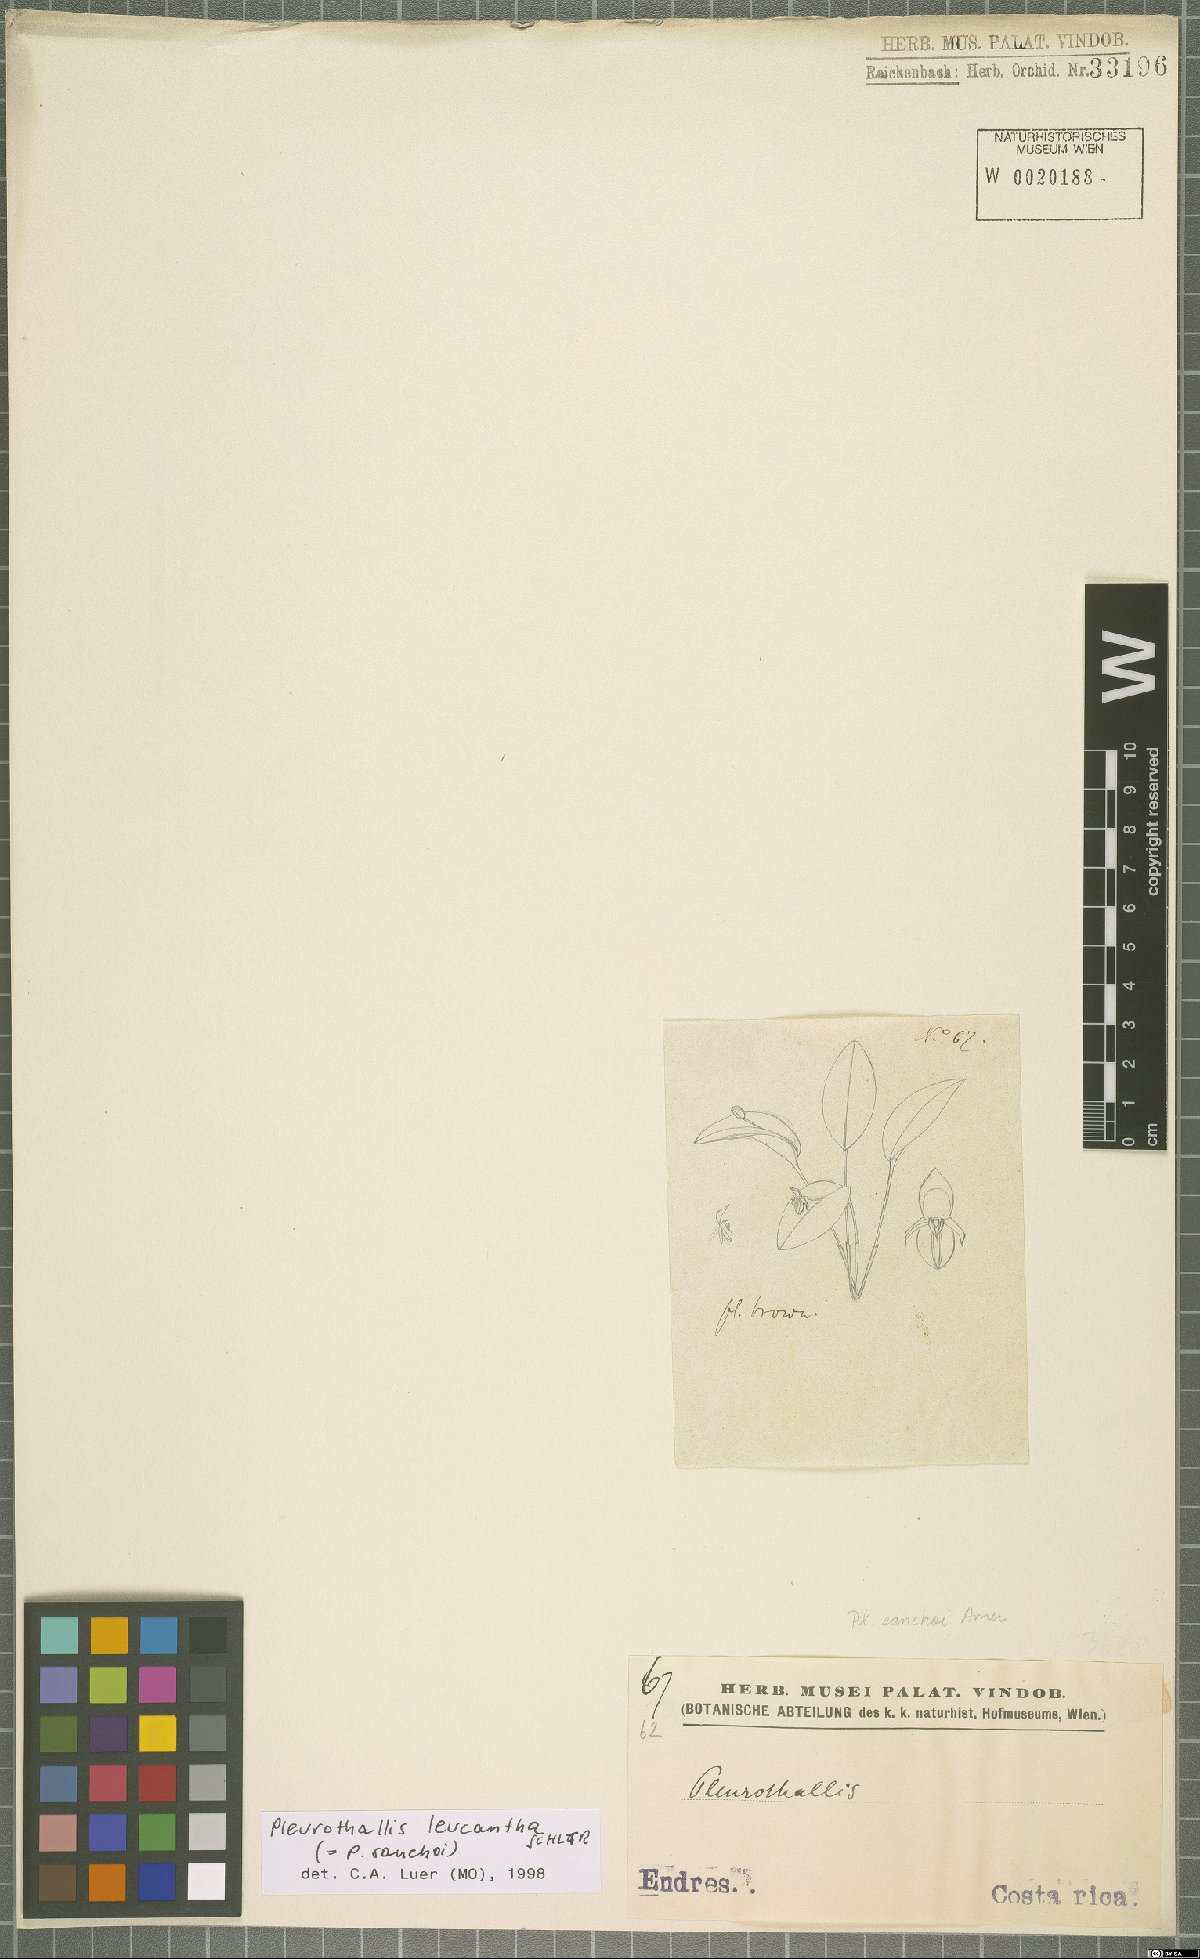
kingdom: Plantae
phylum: Tracheophyta
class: Liliopsida
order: Asparagales
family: Orchidaceae
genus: Pleurothallis
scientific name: Pleurothallis leucantha
